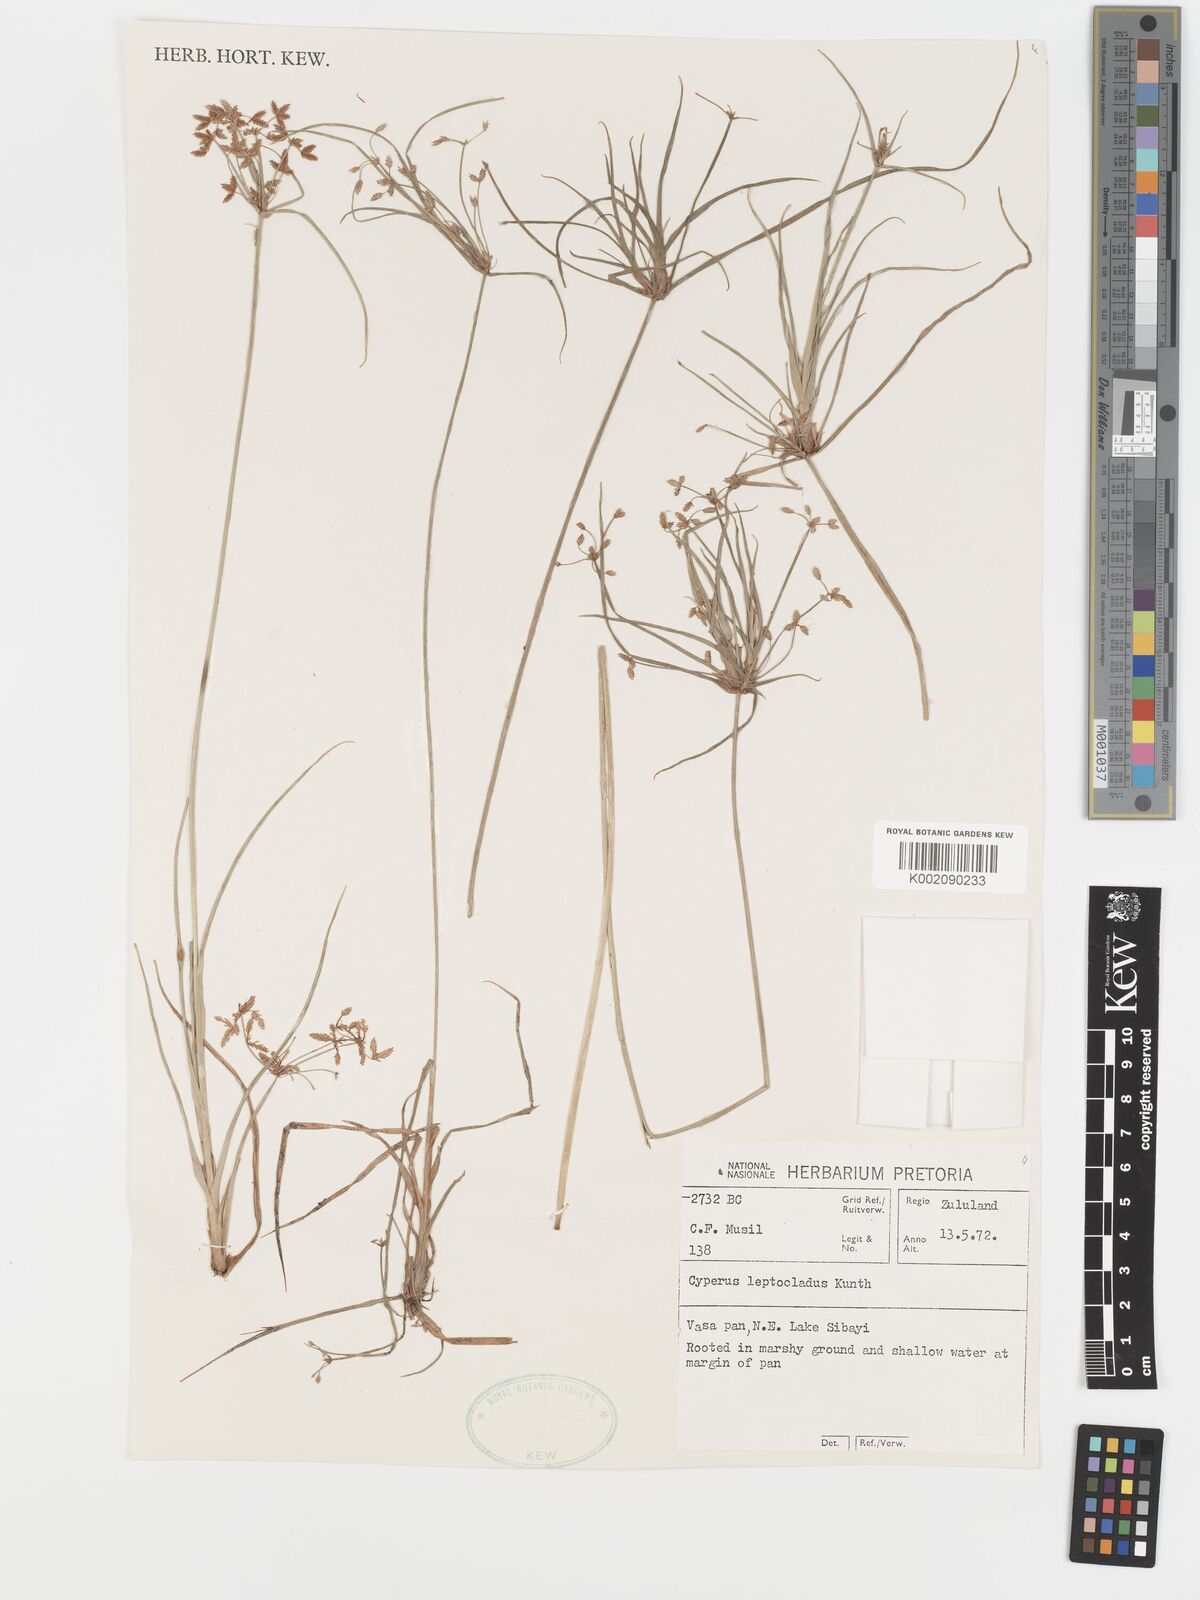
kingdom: Plantae
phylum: Tracheophyta
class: Liliopsida
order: Poales
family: Cyperaceae
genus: Cyperus
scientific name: Cyperus leptocladus
